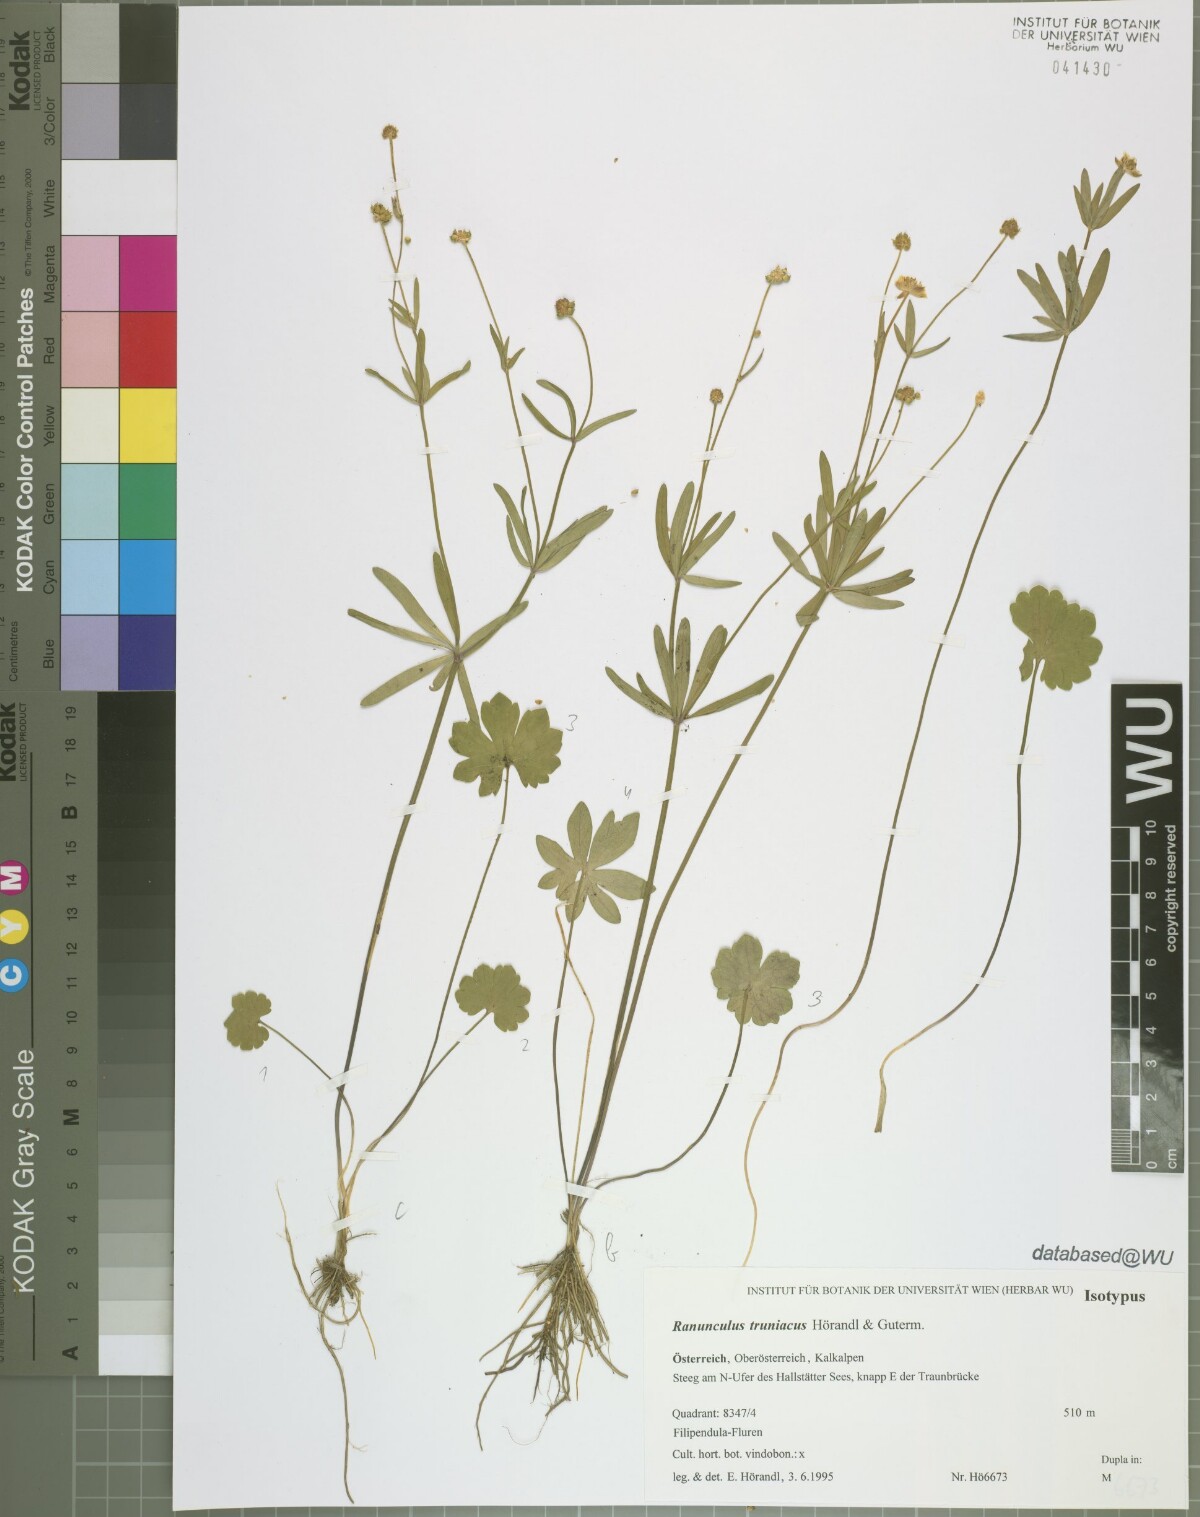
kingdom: Plantae
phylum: Tracheophyta
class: Magnoliopsida
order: Ranunculales
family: Ranunculaceae
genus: Ranunculus
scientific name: Ranunculus truniacus
